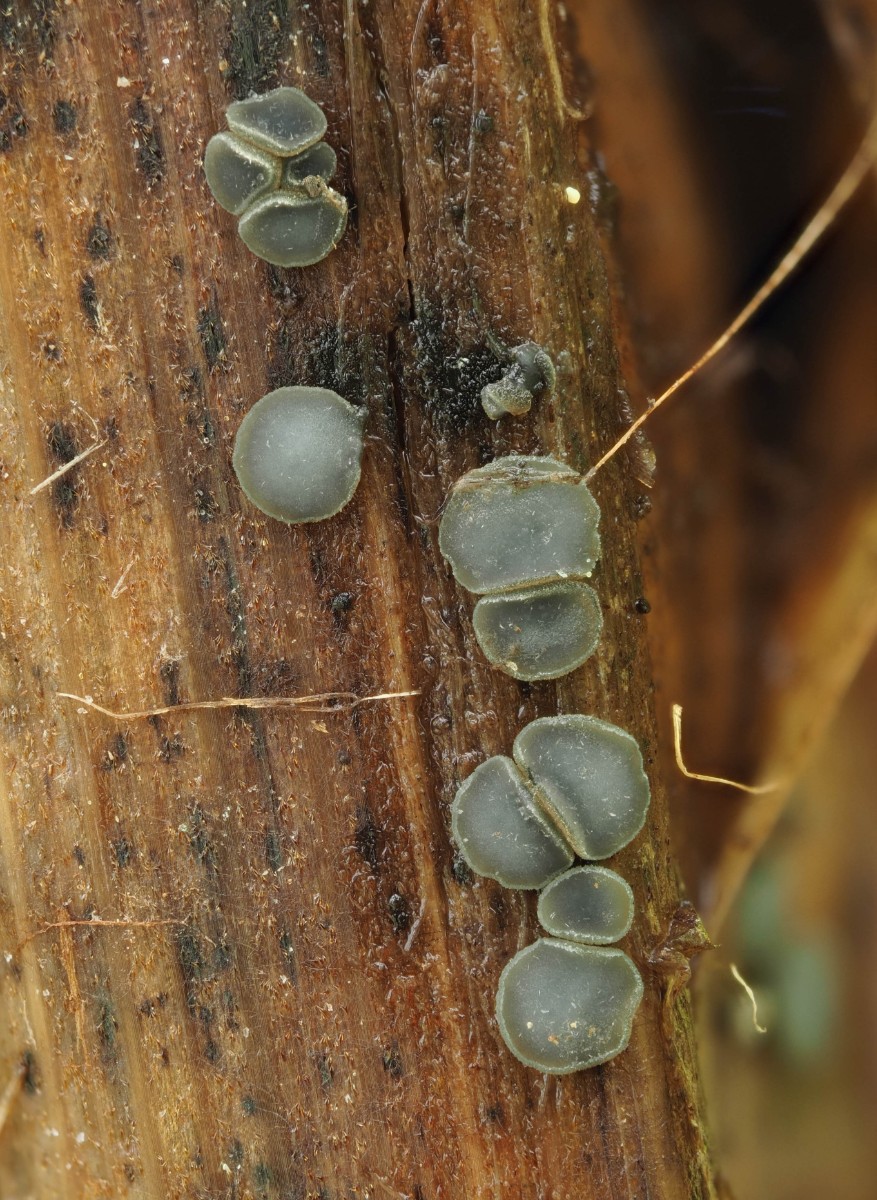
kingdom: Fungi
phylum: Ascomycota
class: Leotiomycetes
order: Helotiales
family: Mollisiaceae
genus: Mollisia
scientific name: Mollisia asteroma
